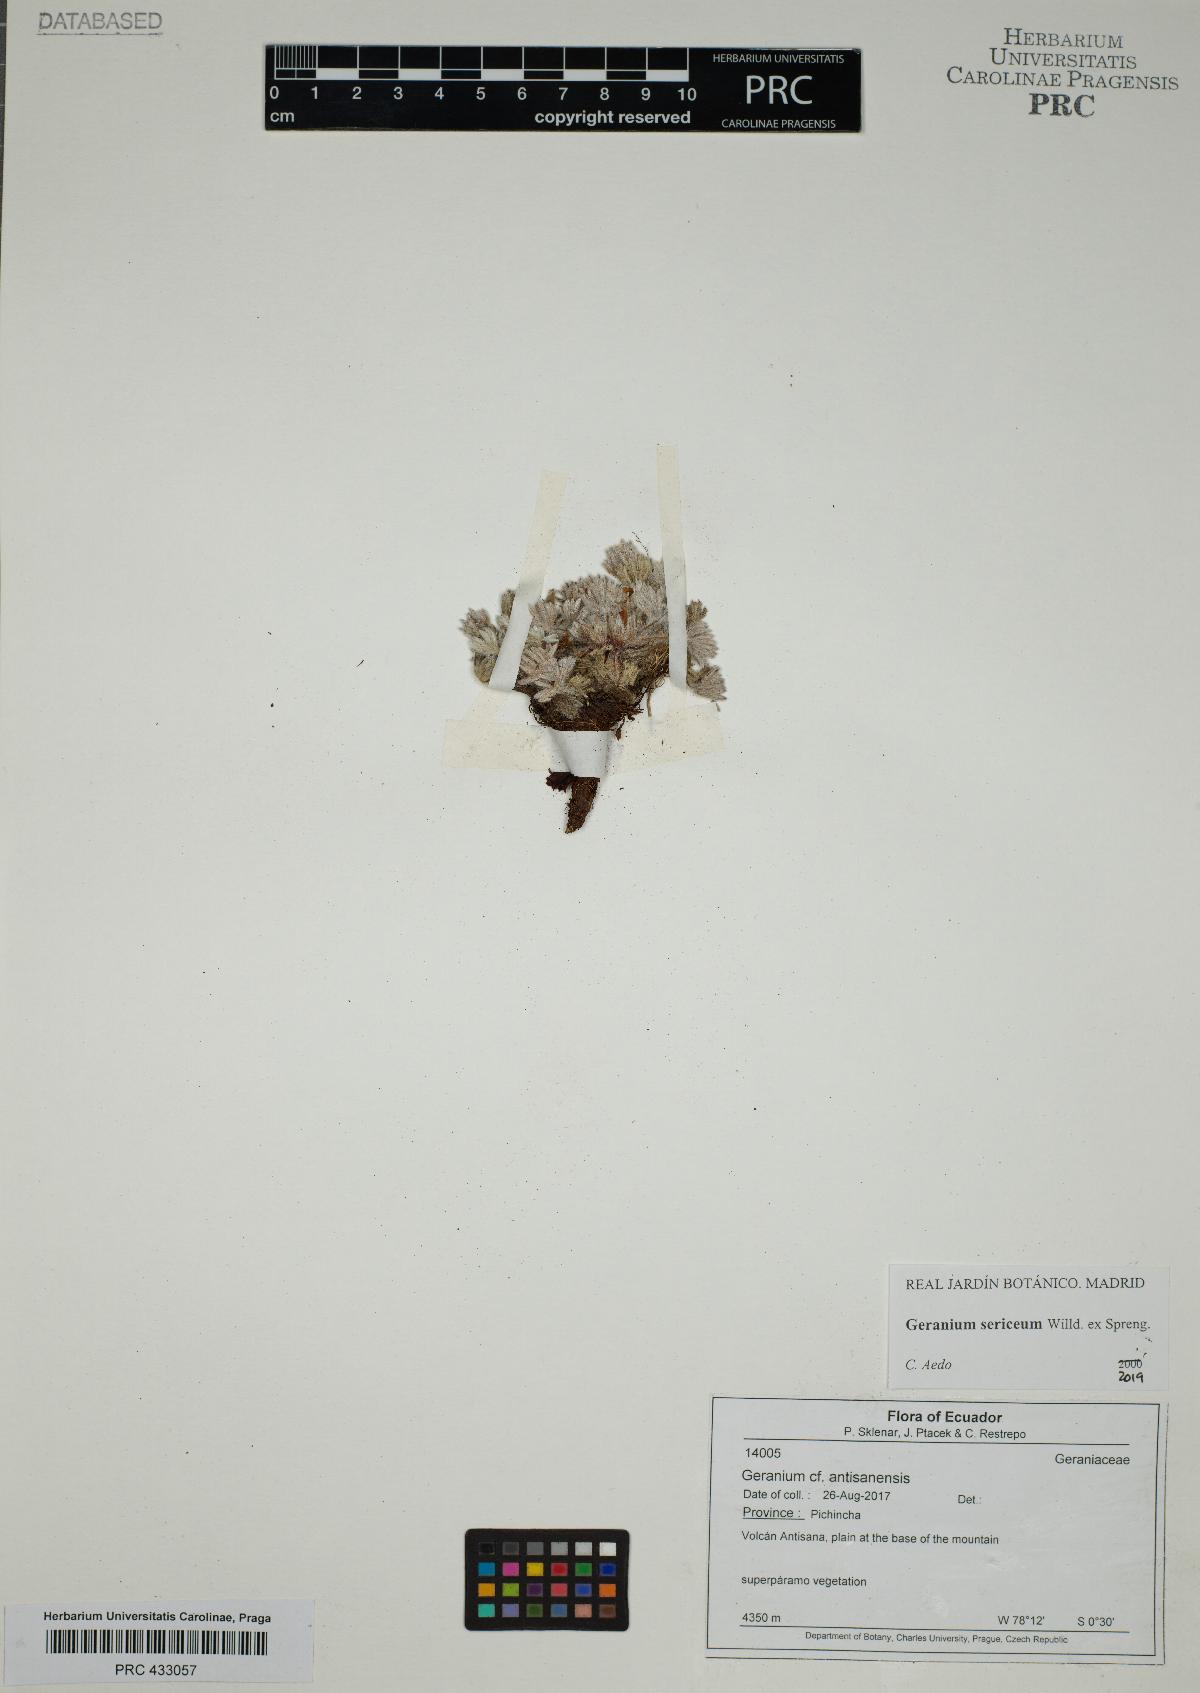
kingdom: Plantae
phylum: Tracheophyta
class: Magnoliopsida
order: Geraniales
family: Geraniaceae
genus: Geranium
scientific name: Geranium sericeum
